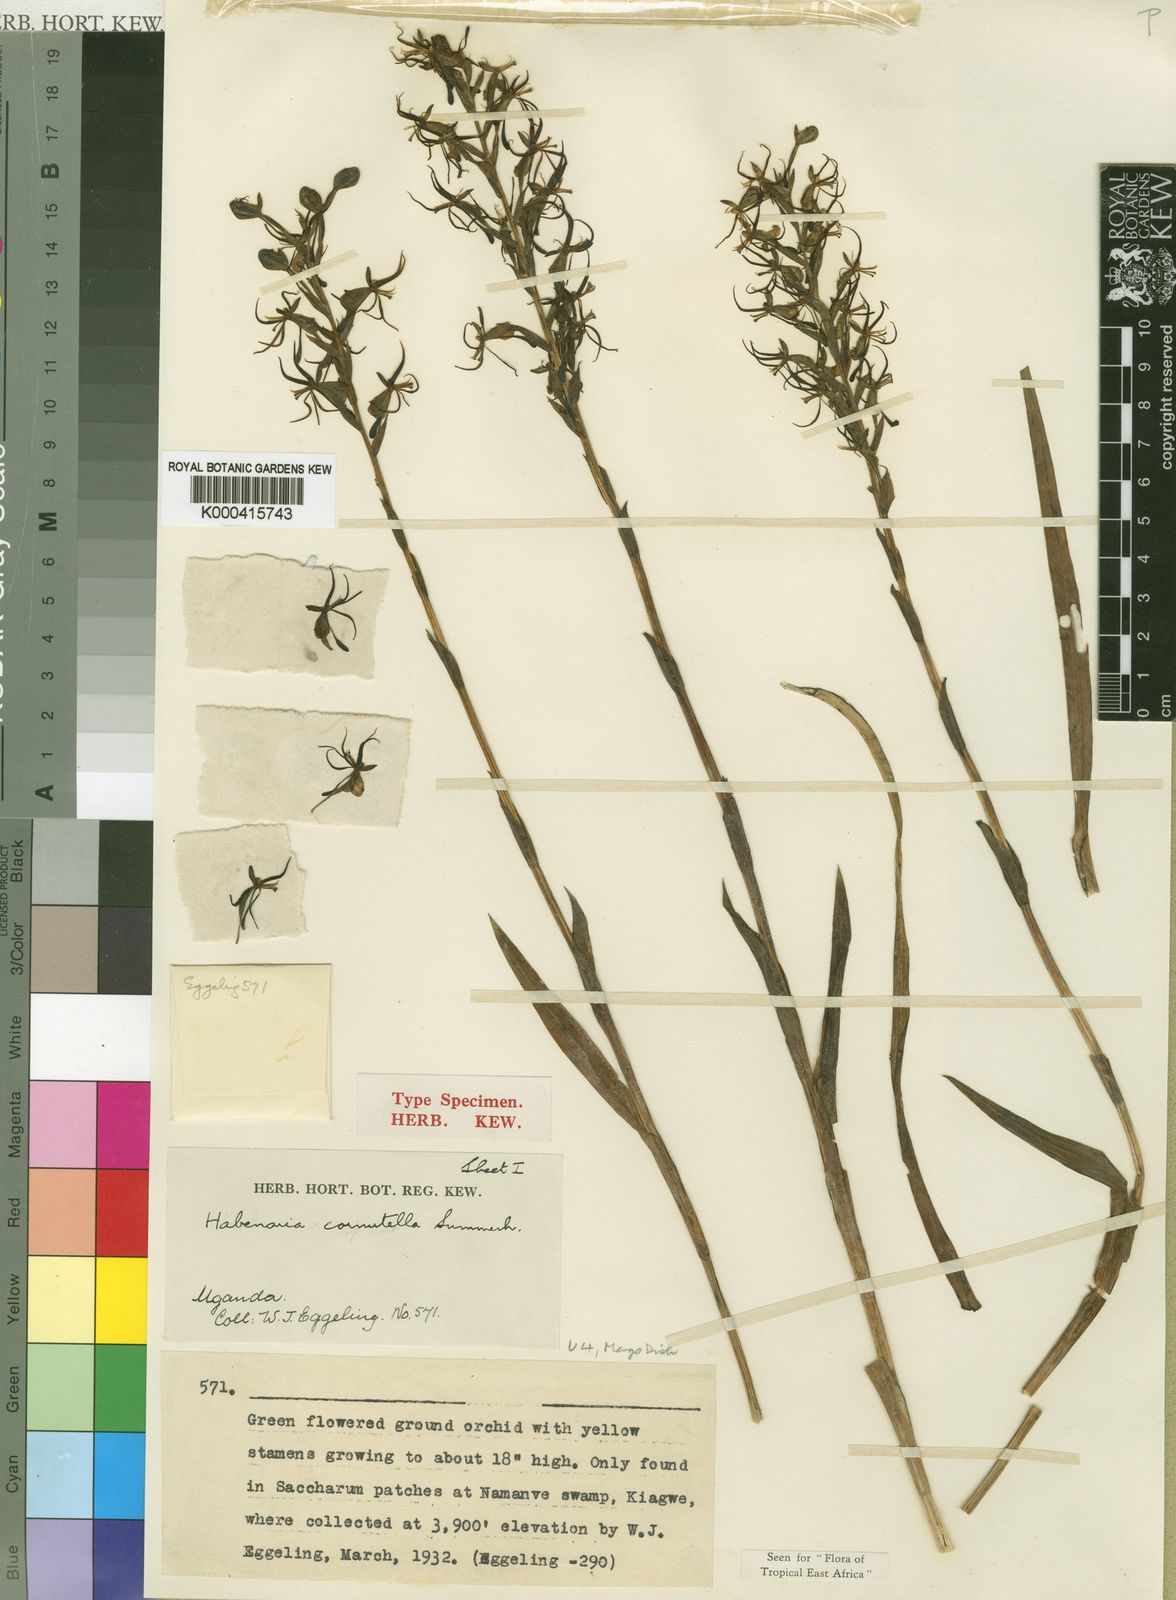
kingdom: Plantae
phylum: Tracheophyta
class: Liliopsida
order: Asparagales
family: Orchidaceae
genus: Habenaria
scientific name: Habenaria cornutella
